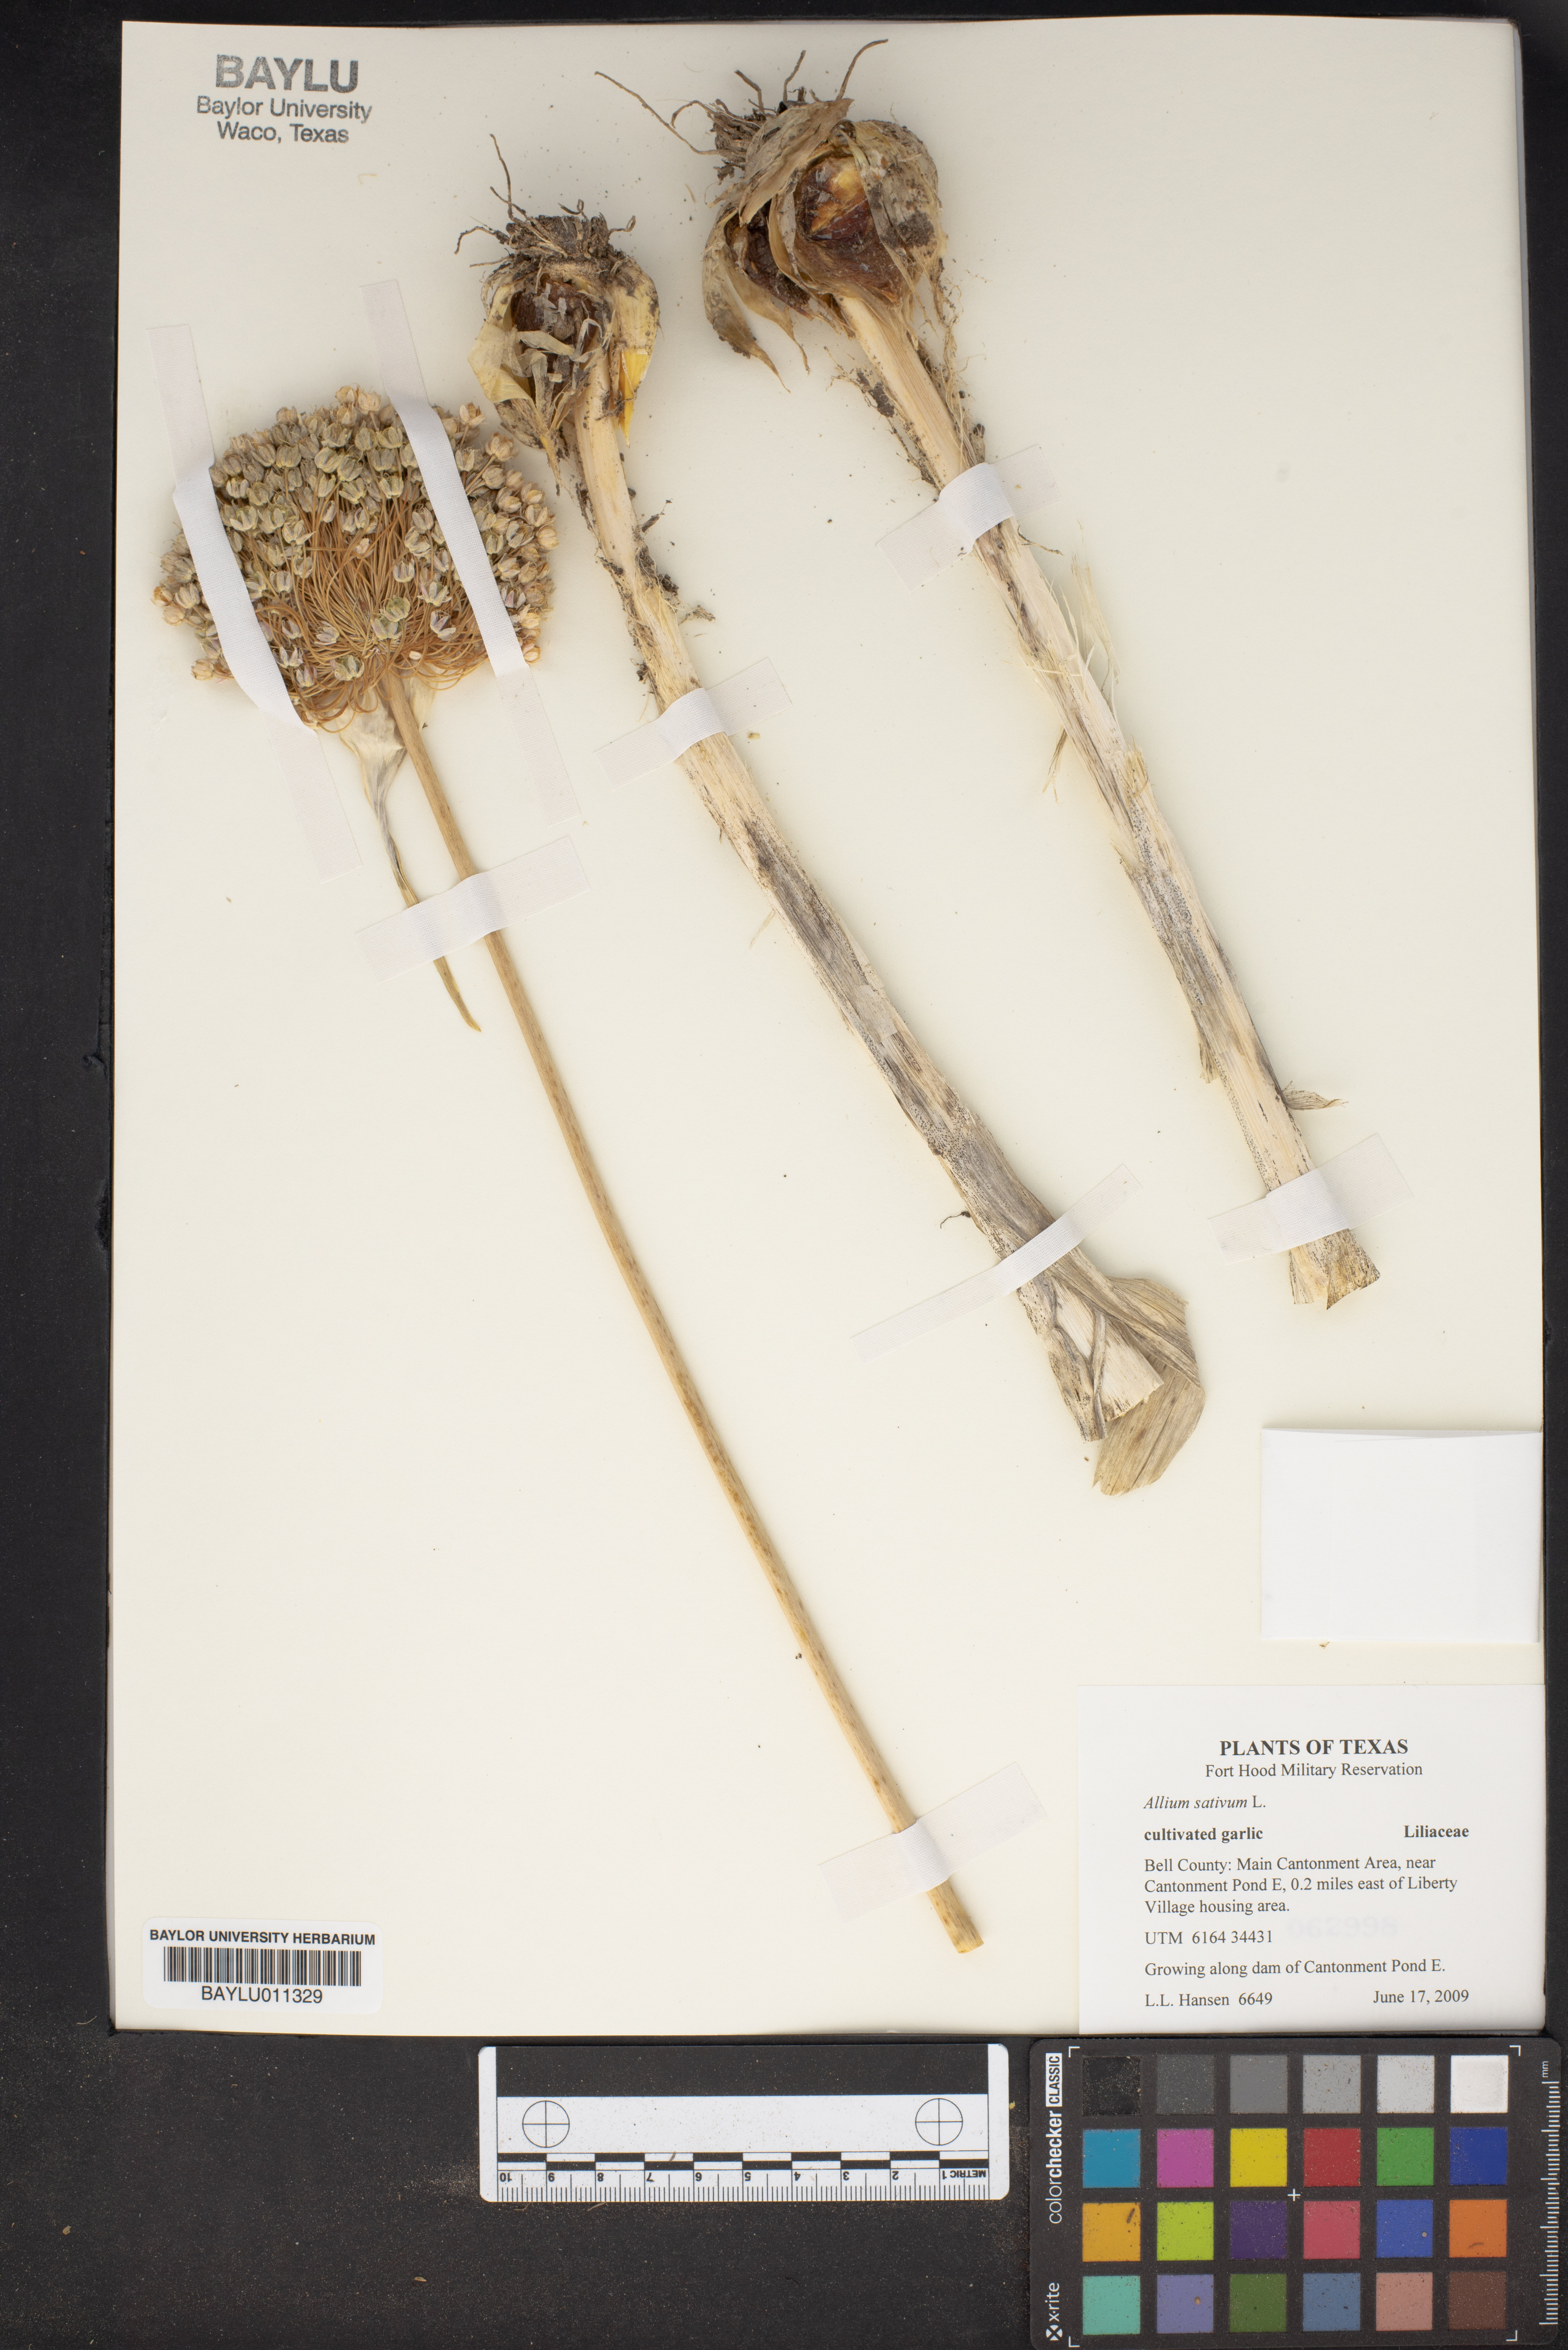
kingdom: Plantae
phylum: Tracheophyta
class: Liliopsida
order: Asparagales
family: Amaryllidaceae
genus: Allium
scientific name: Allium sativum
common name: Garlic
